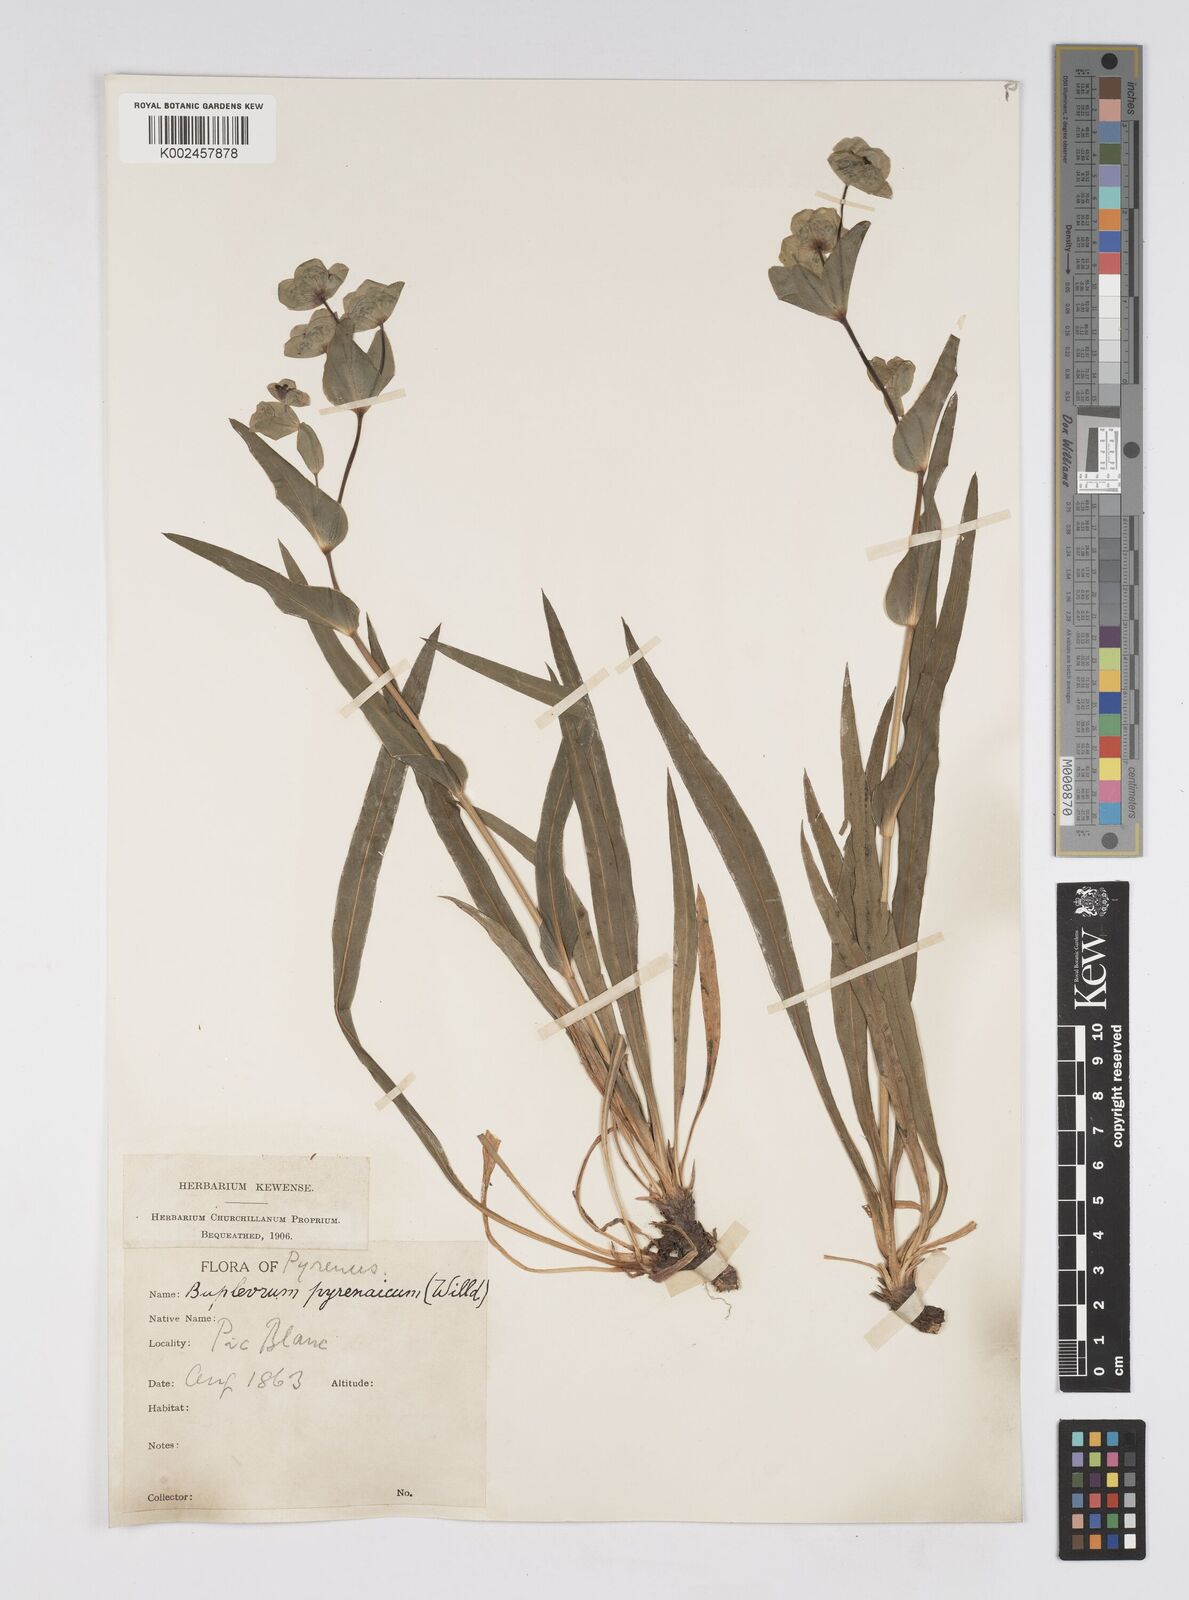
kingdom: Plantae
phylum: Tracheophyta
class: Magnoliopsida
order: Apiales
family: Apiaceae
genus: Bupleurum
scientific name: Bupleurum angulosum
